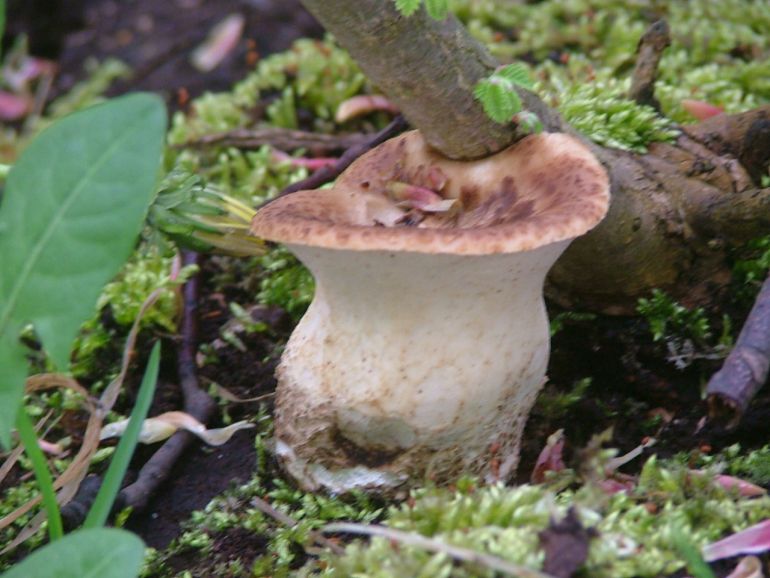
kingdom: Fungi
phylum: Basidiomycota
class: Agaricomycetes
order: Polyporales
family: Polyporaceae
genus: Cerioporus
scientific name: Cerioporus squamosus
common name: skællet stilkporesvamp
